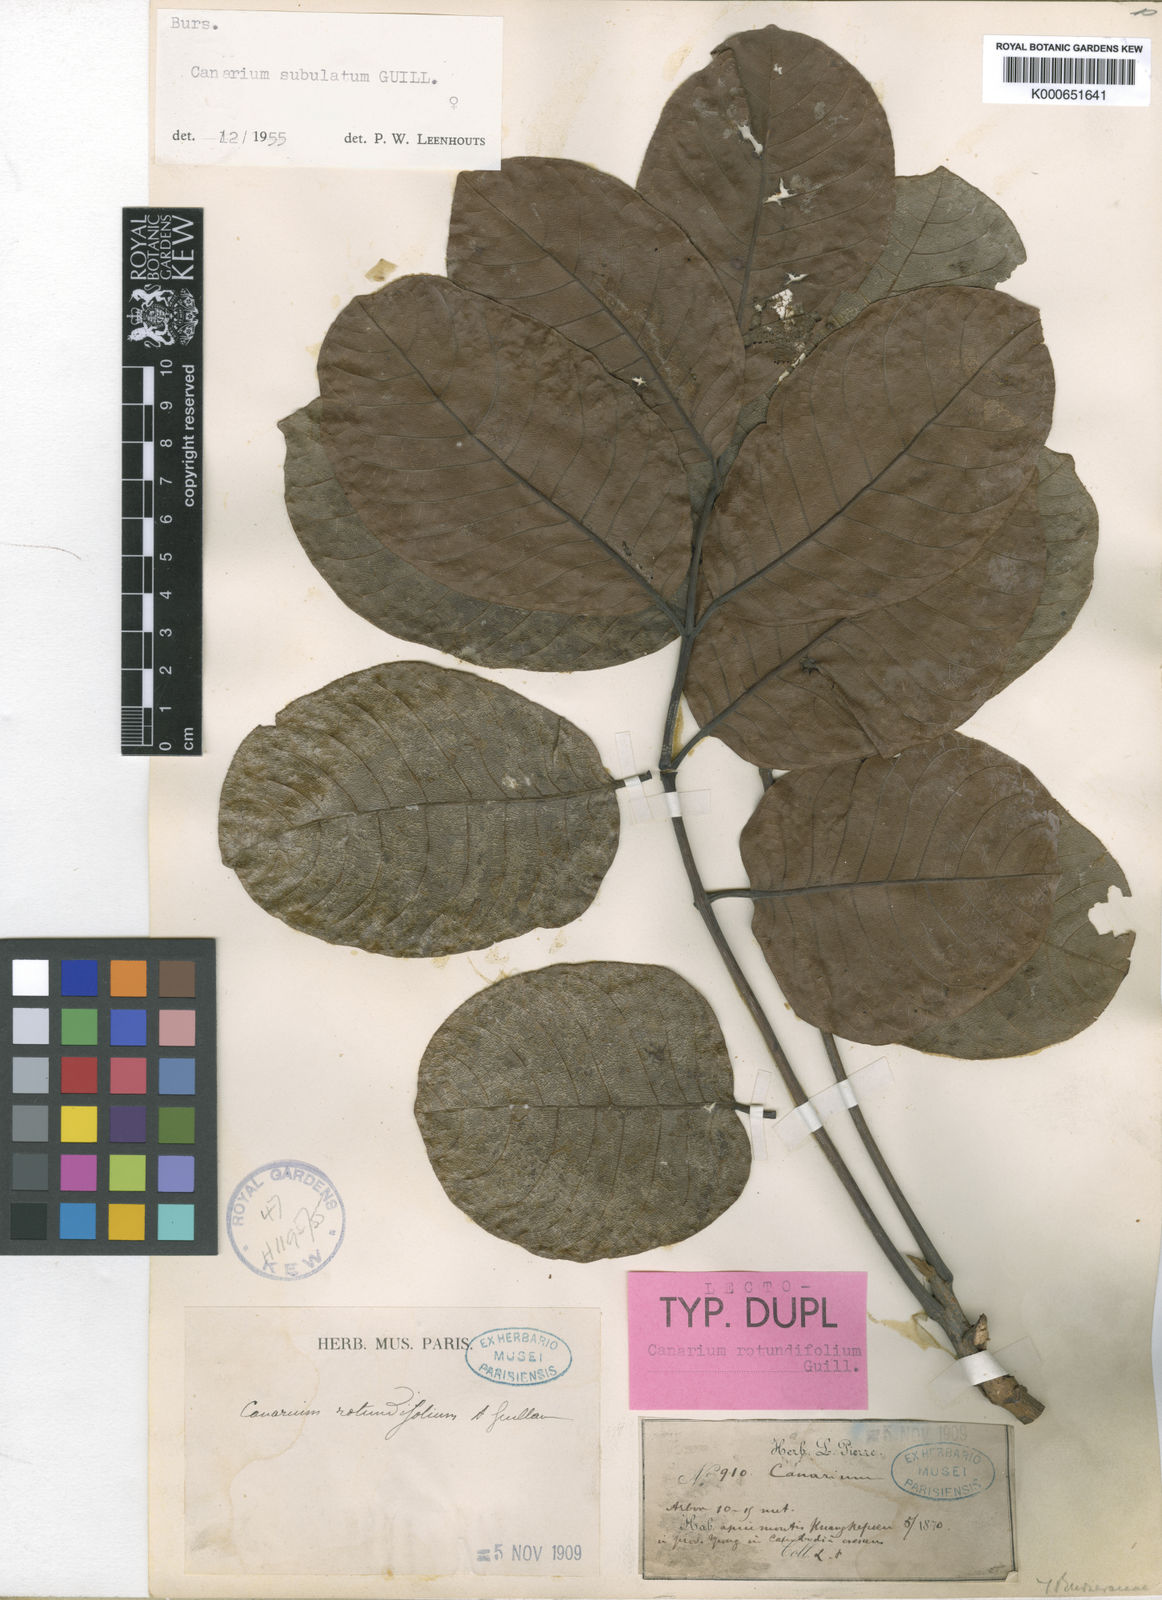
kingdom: Plantae
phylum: Tracheophyta
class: Magnoliopsida
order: Sapindales
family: Burseraceae
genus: Canarium
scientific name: Canarium subulatum
